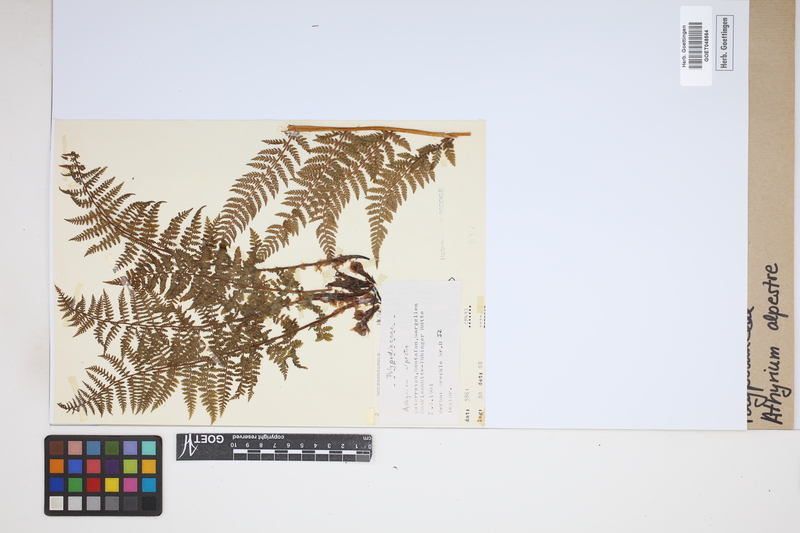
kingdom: Plantae
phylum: Tracheophyta
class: Polypodiopsida
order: Polypodiales
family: Athyriaceae
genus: Pseudathyrium
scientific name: Pseudathyrium alpestre
